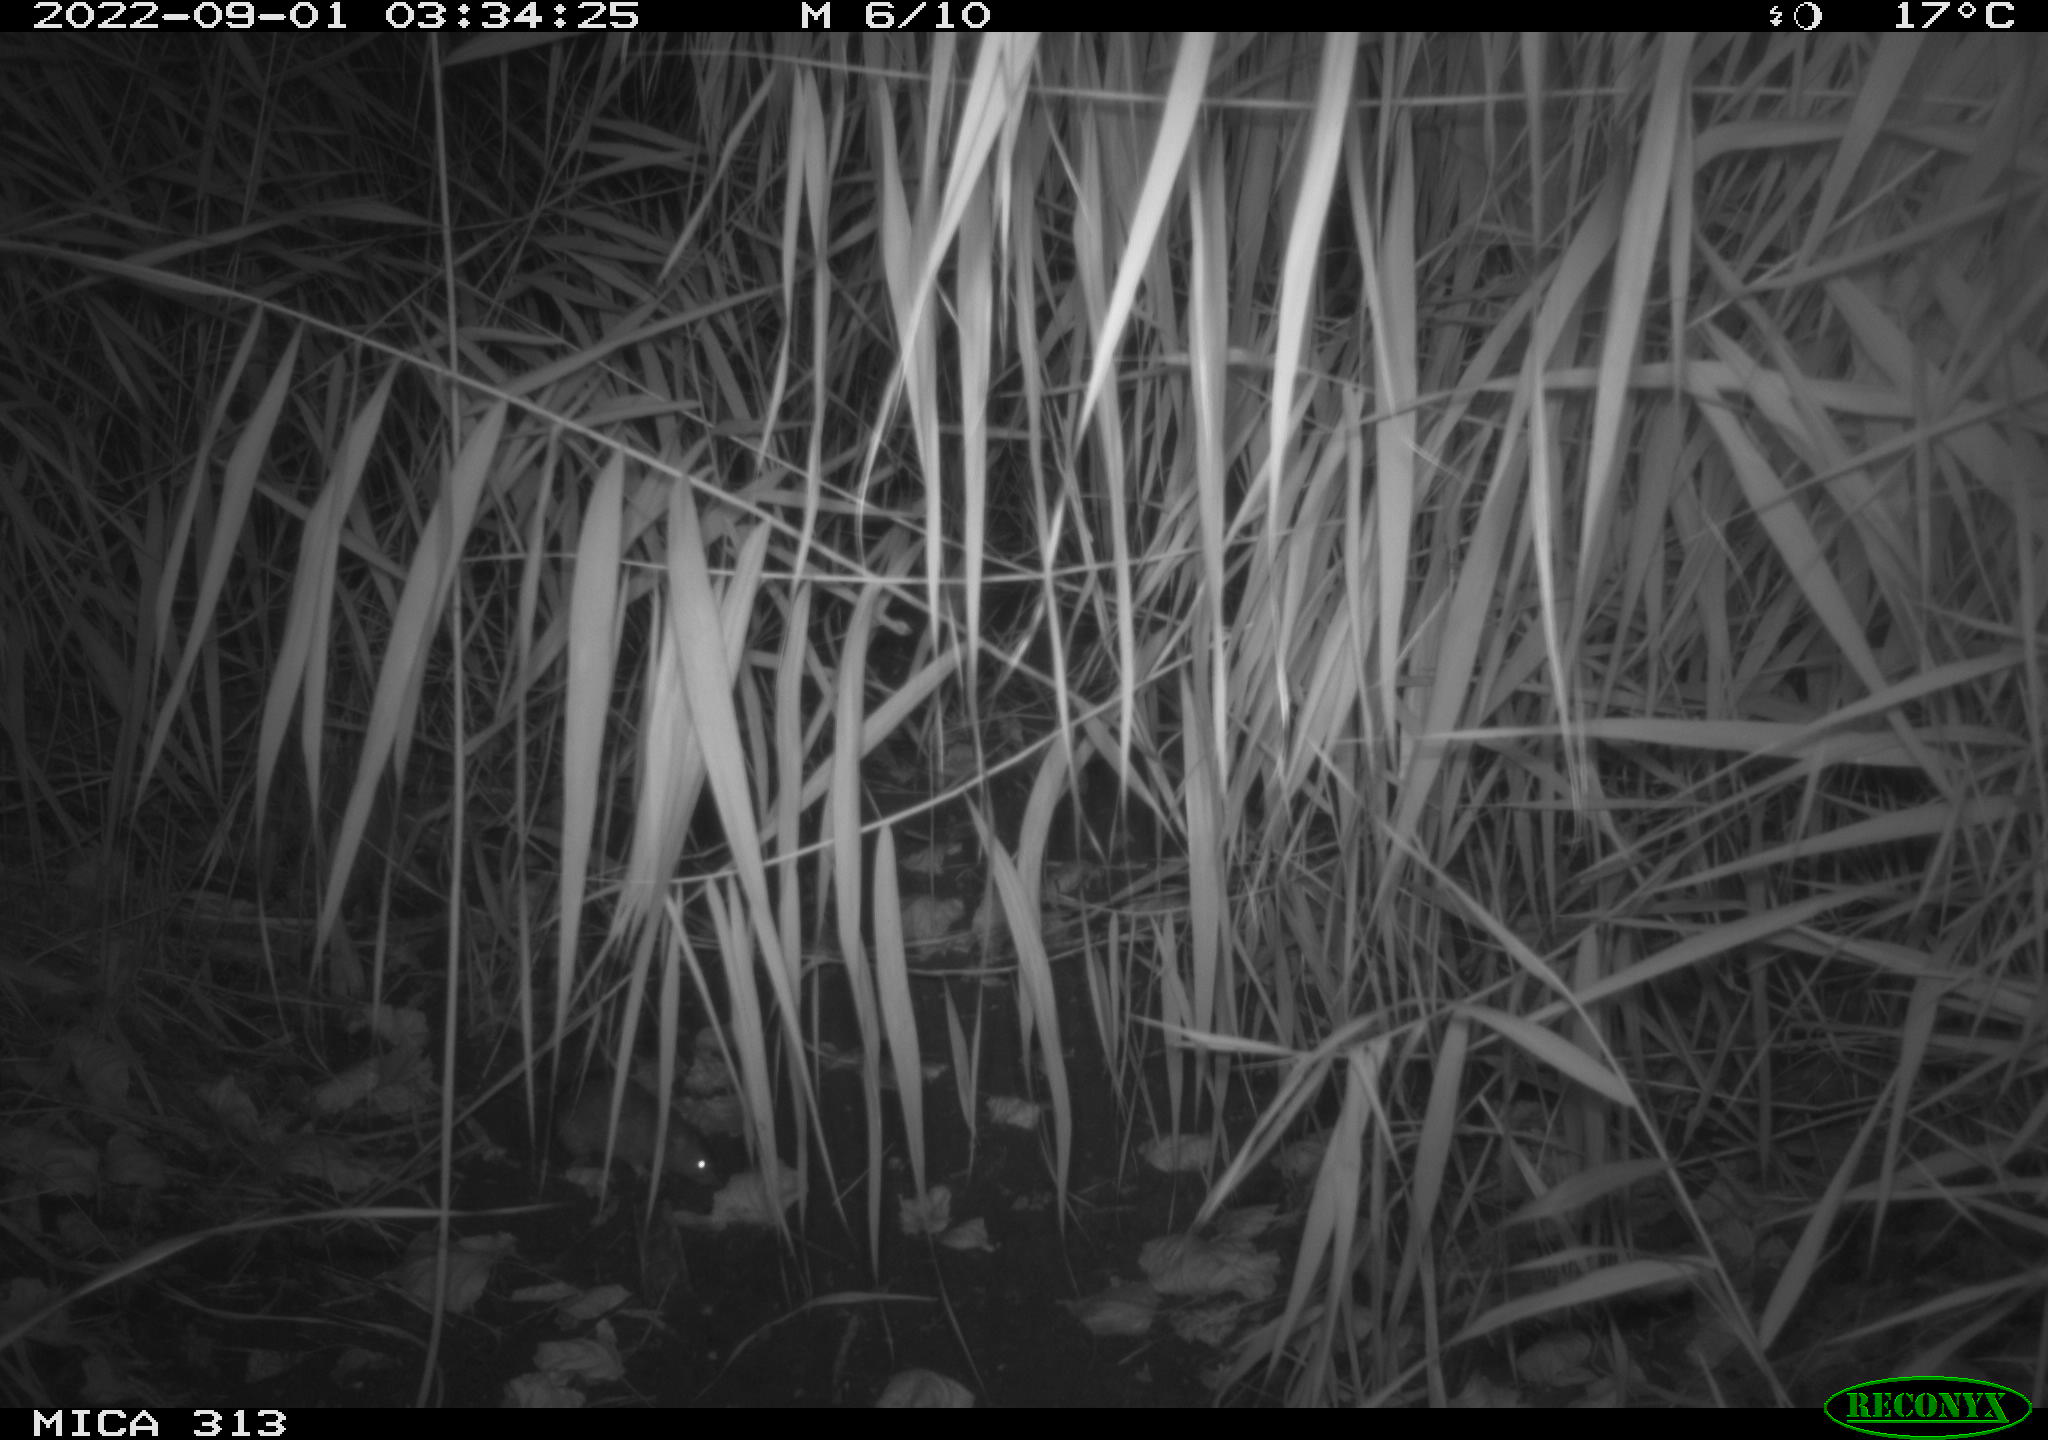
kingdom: Animalia
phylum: Chordata
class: Mammalia
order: Rodentia
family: Muridae
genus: Rattus
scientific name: Rattus norvegicus
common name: Brown rat
